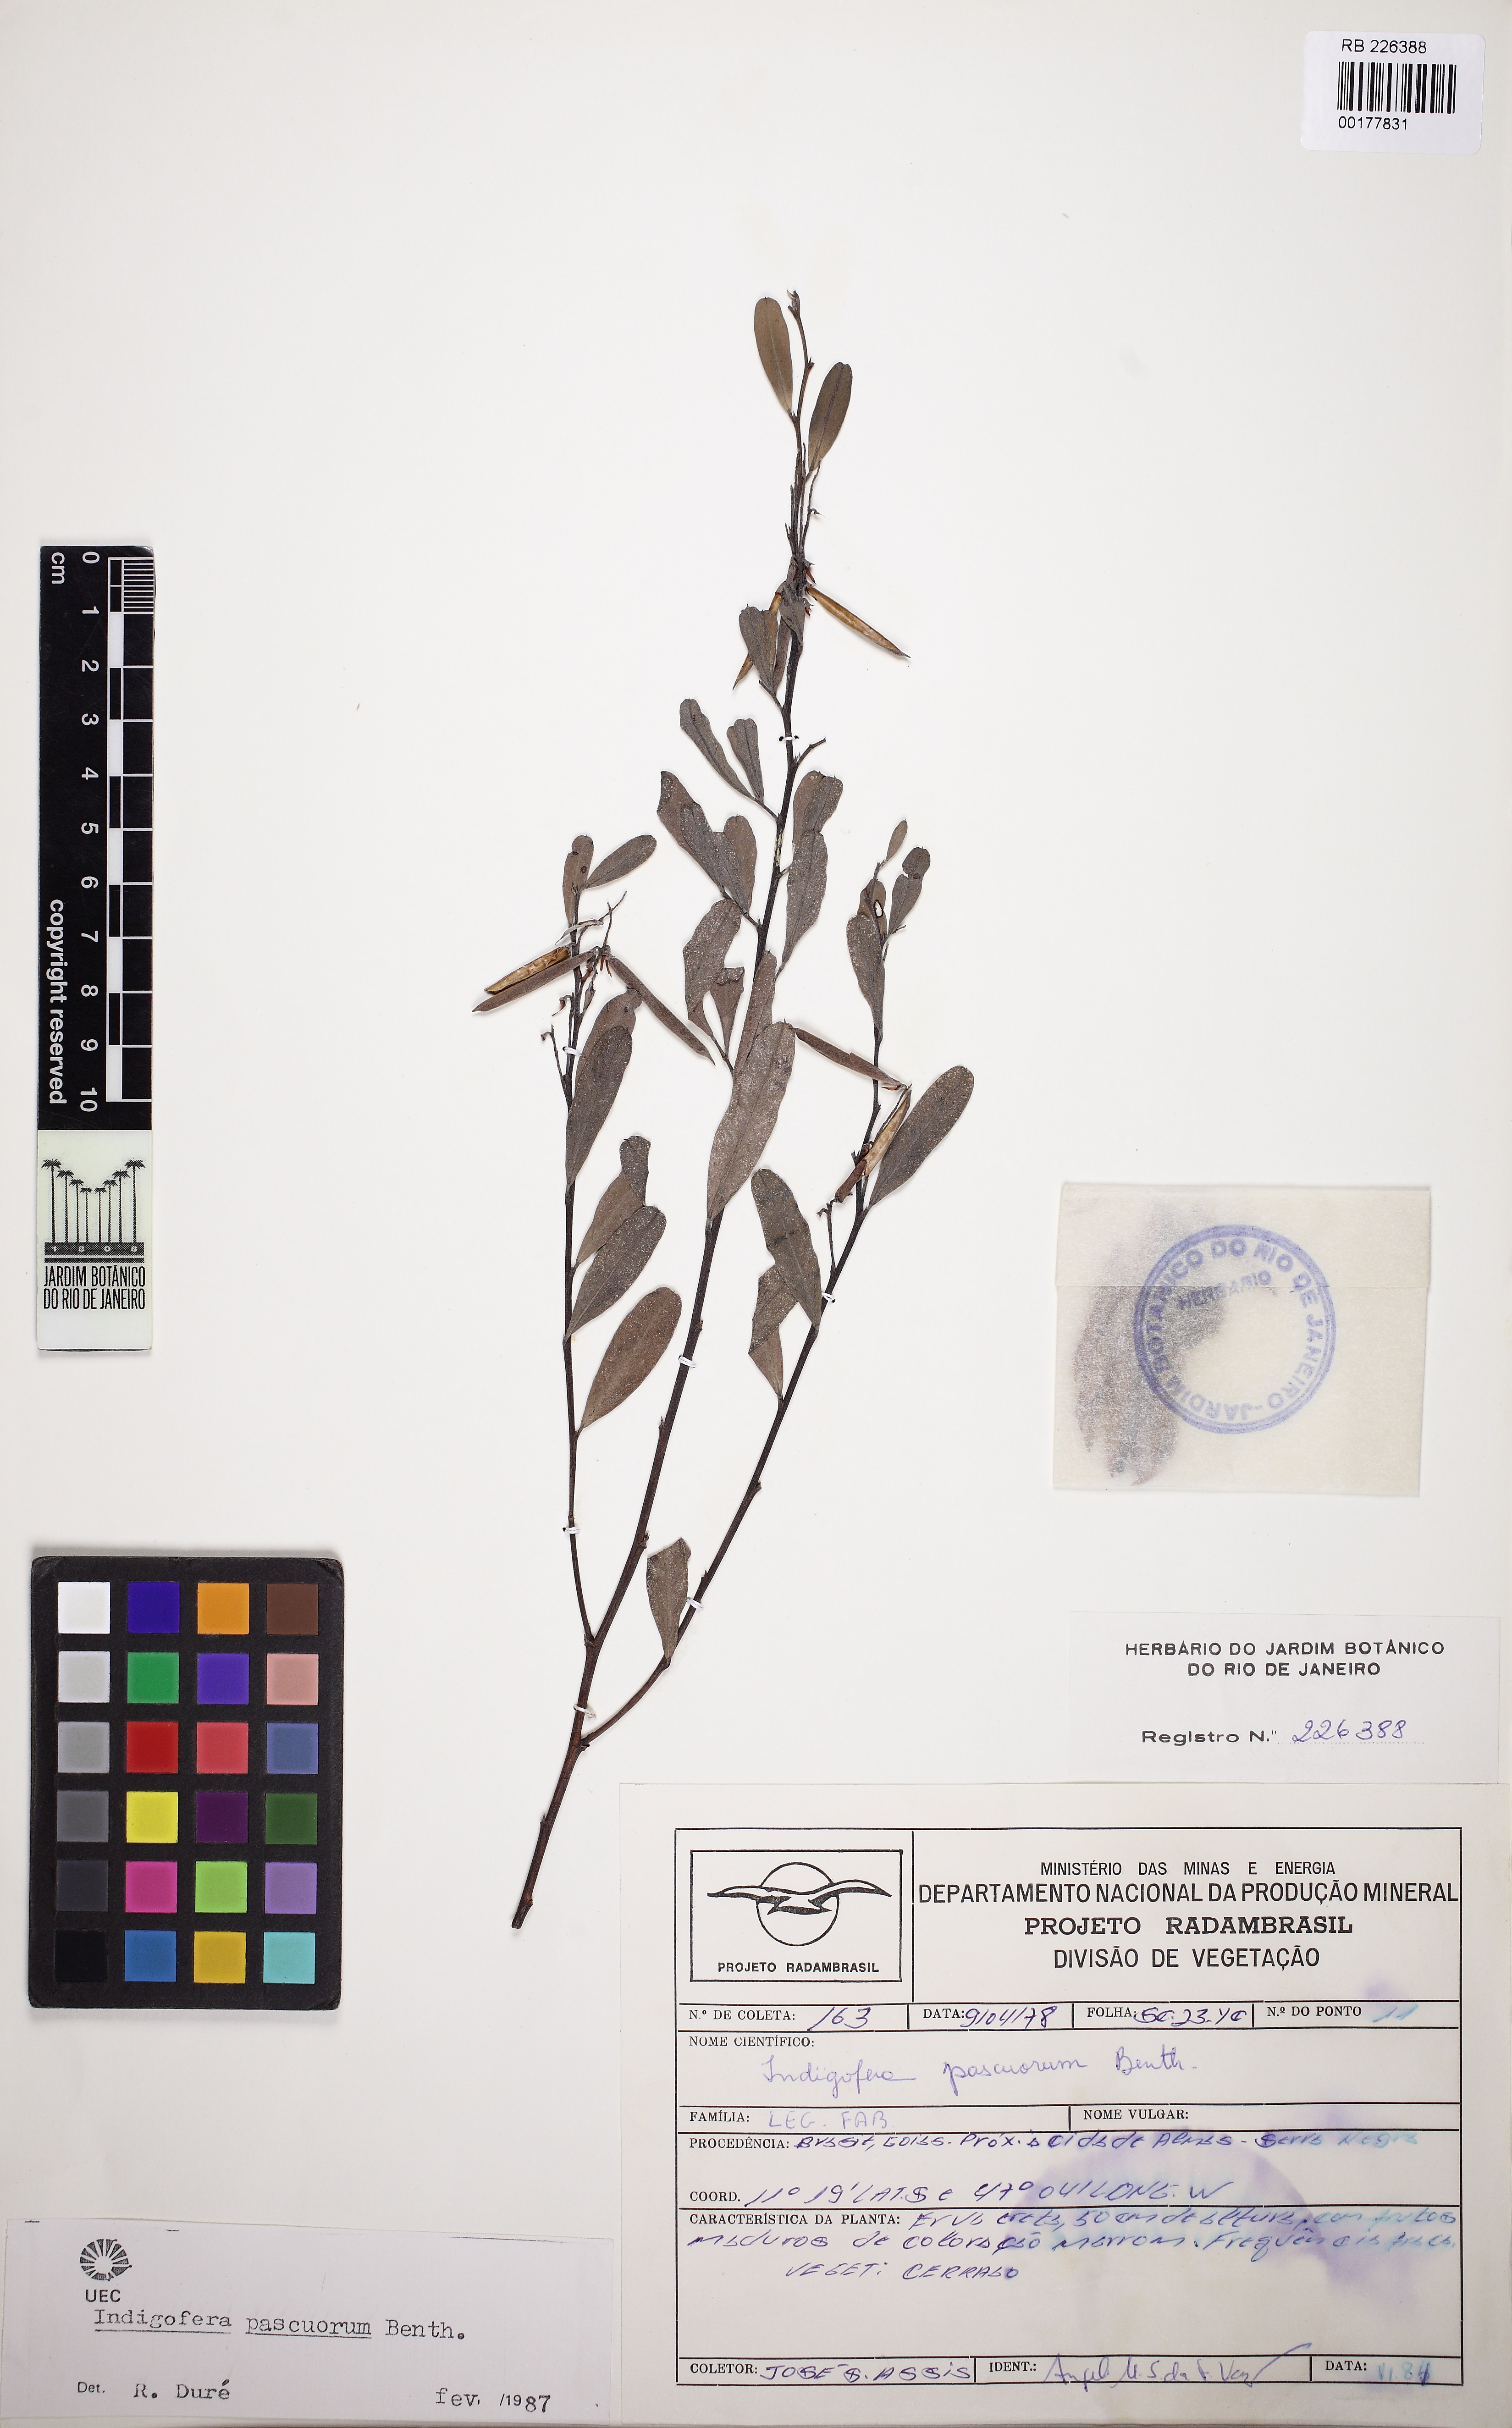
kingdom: Plantae
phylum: Tracheophyta
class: Magnoliopsida
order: Fabales
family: Fabaceae
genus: Indigofera
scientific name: Indigofera lespedezioides
